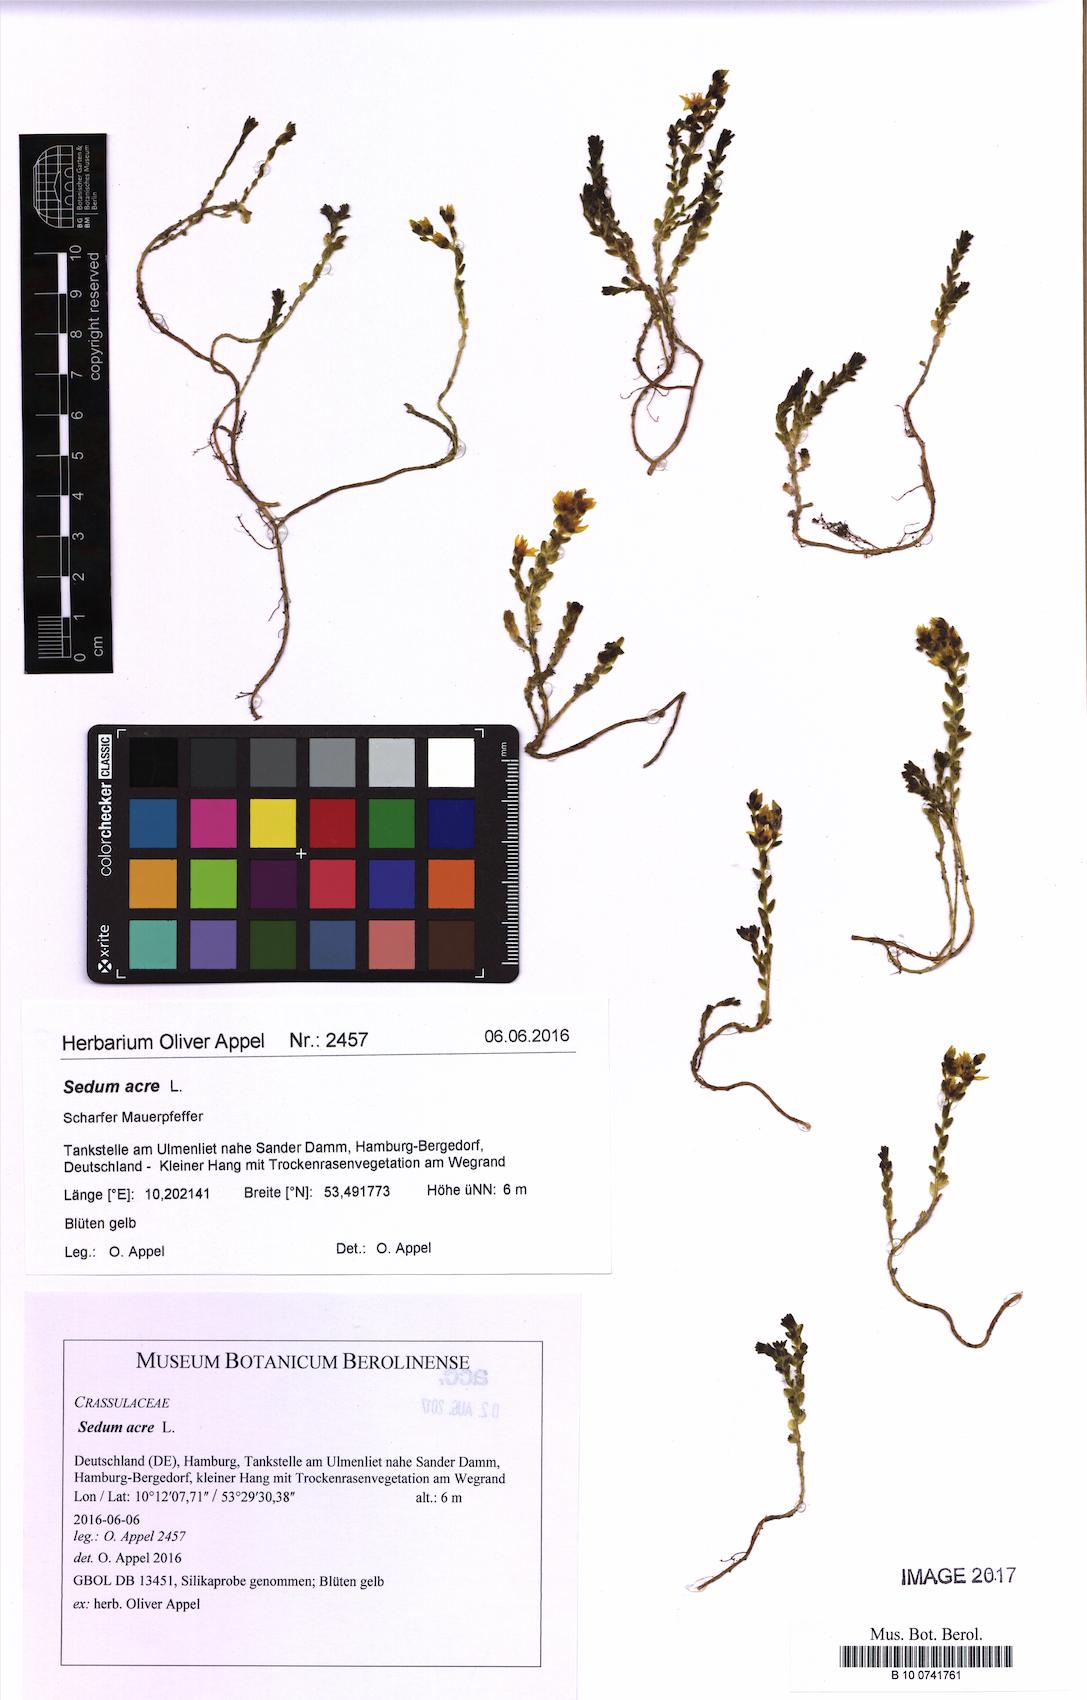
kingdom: Plantae
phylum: Tracheophyta
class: Magnoliopsida
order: Saxifragales
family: Crassulaceae
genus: Sedum
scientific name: Sedum acre
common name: Biting stonecrop
